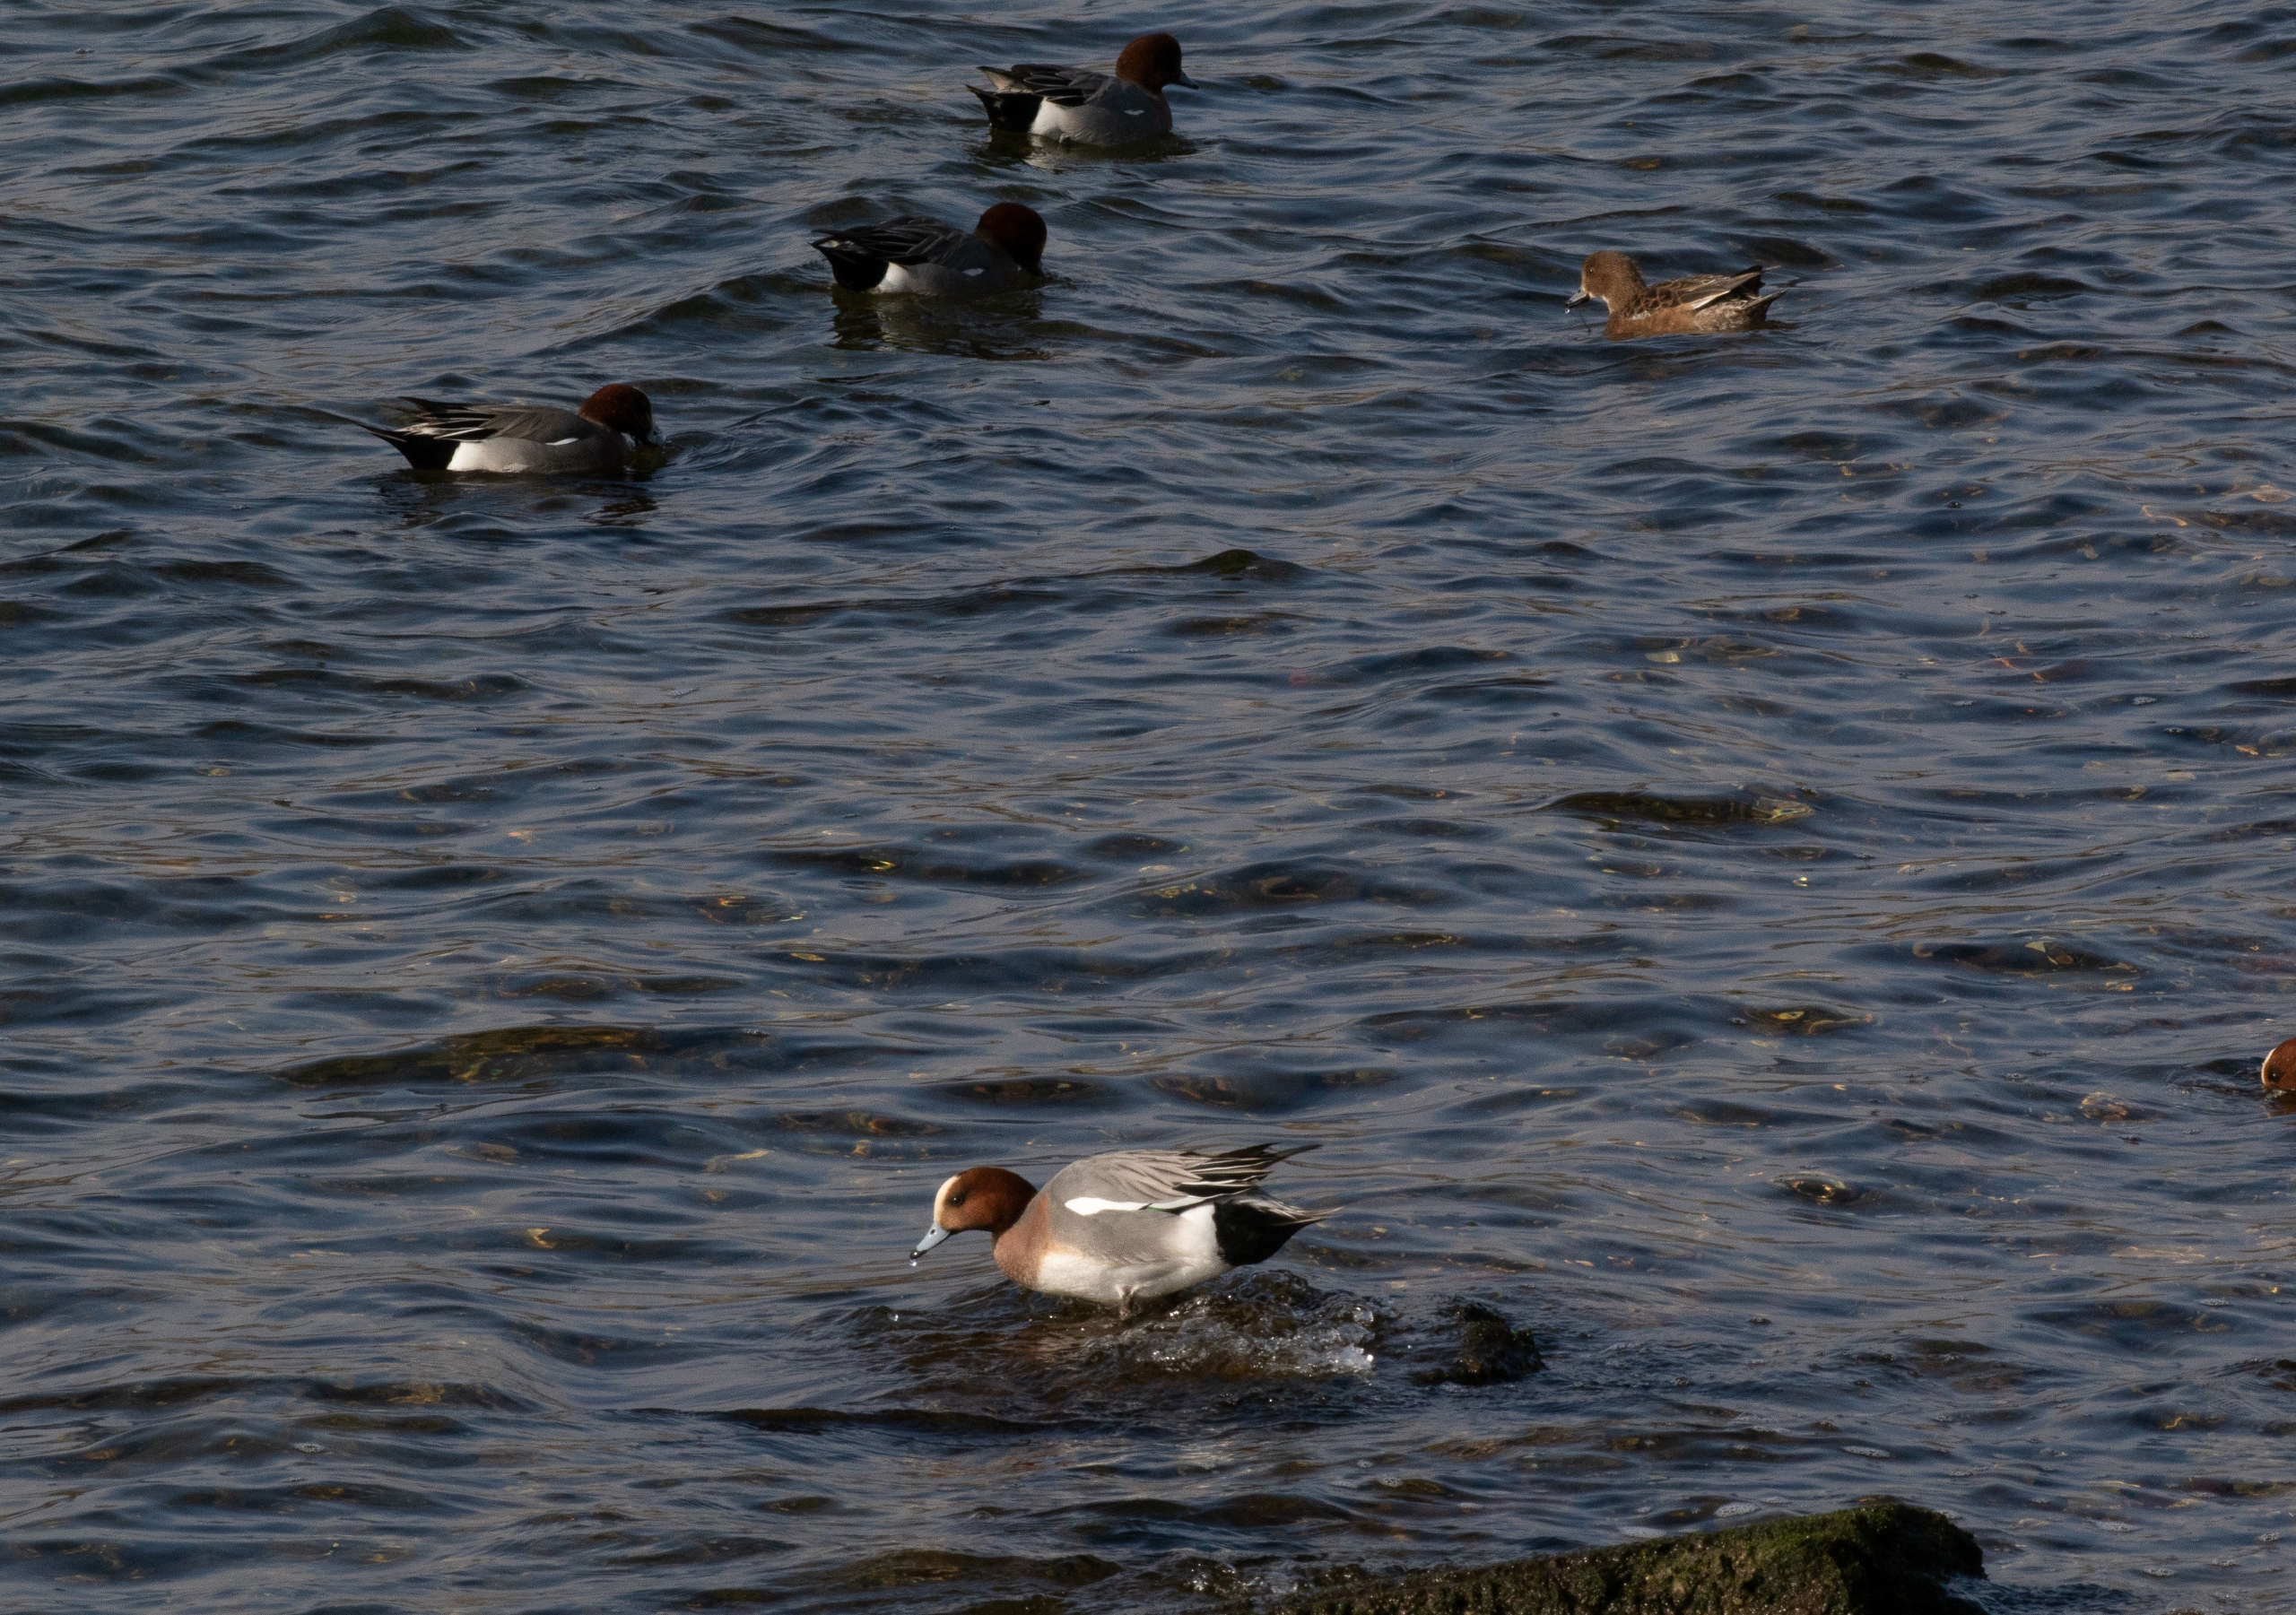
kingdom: Animalia
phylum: Chordata
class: Aves
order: Anseriformes
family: Anatidae
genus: Mareca
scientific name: Mareca penelope
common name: Pibeand
